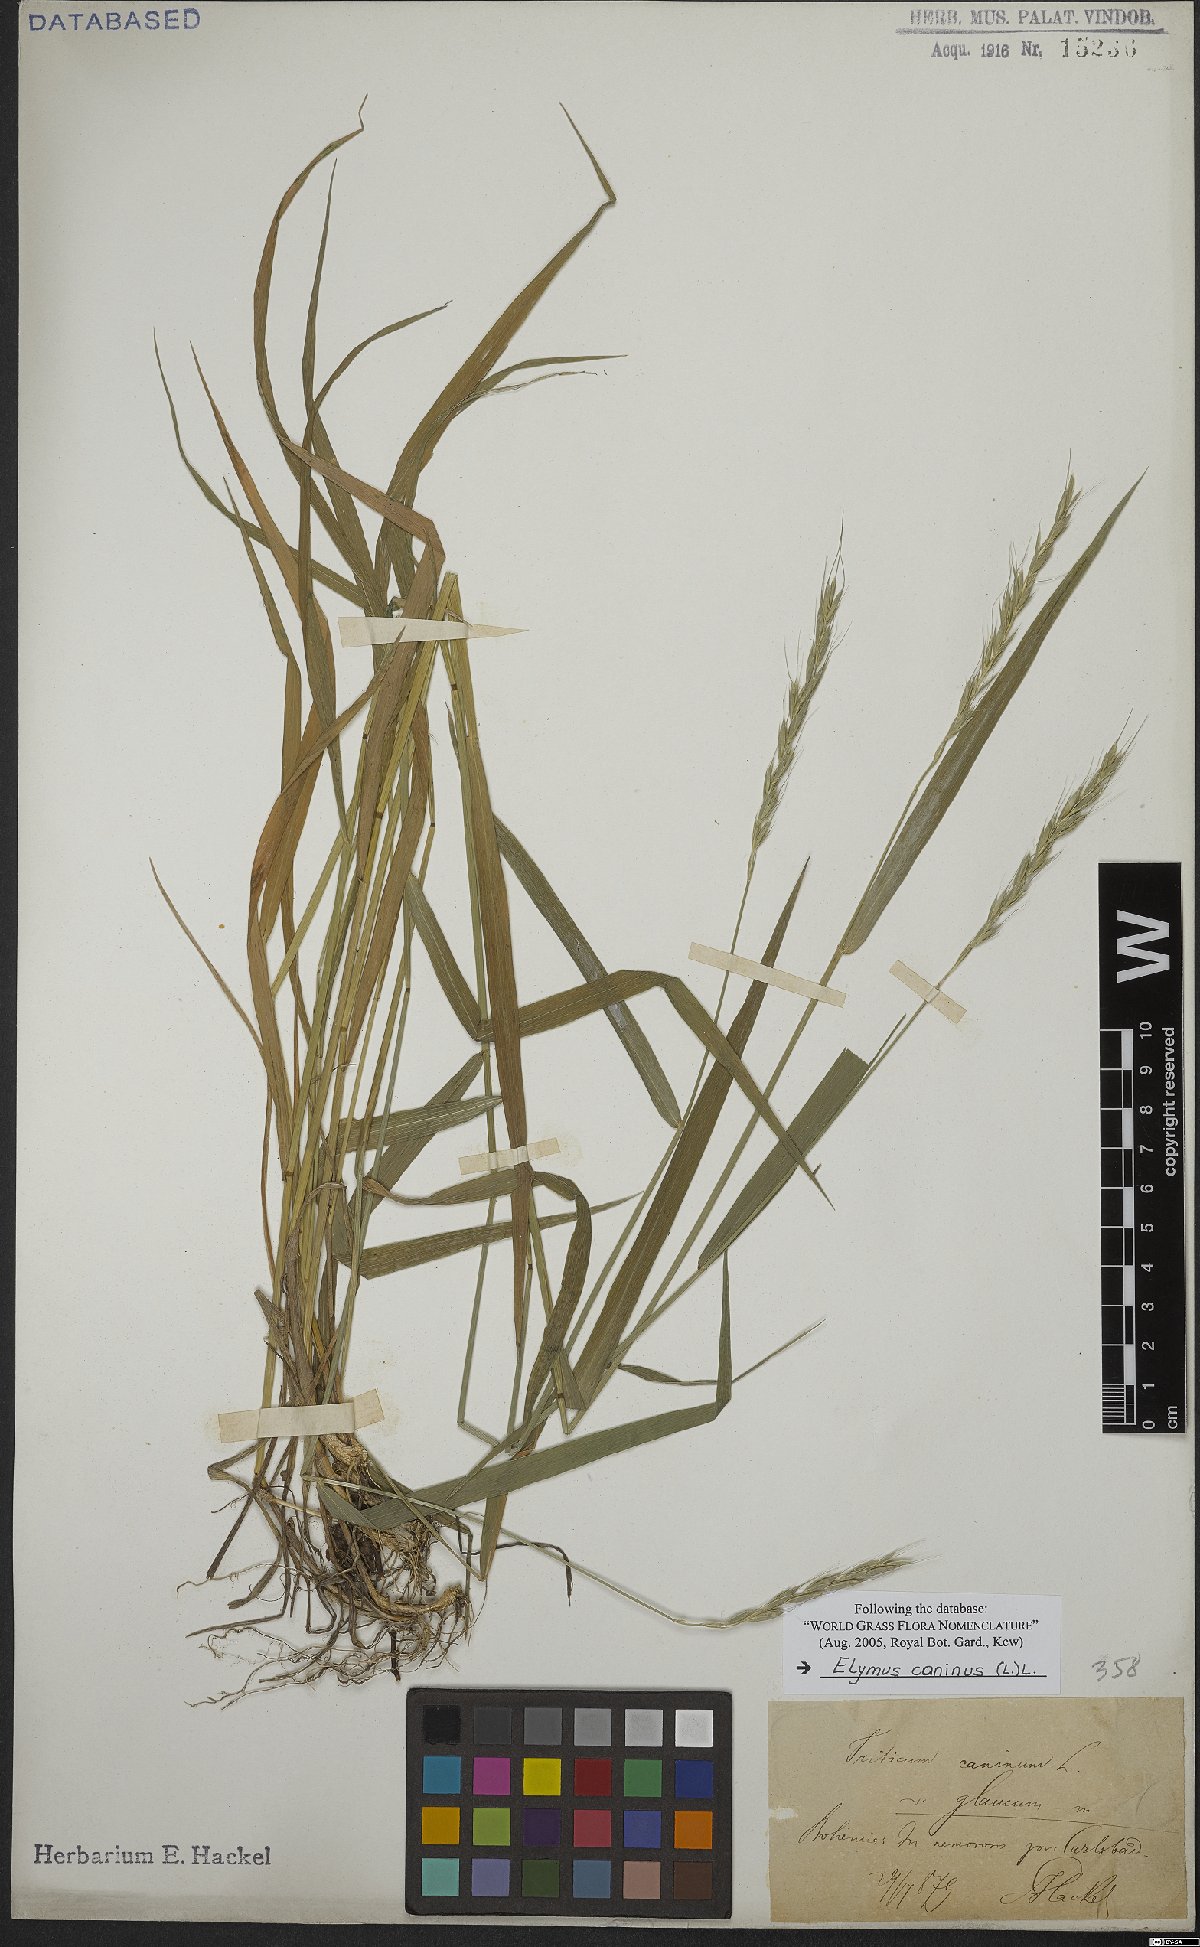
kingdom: Plantae
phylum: Tracheophyta
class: Liliopsida
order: Poales
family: Poaceae
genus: Elymus
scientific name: Elymus caninus
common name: Bearded couch
